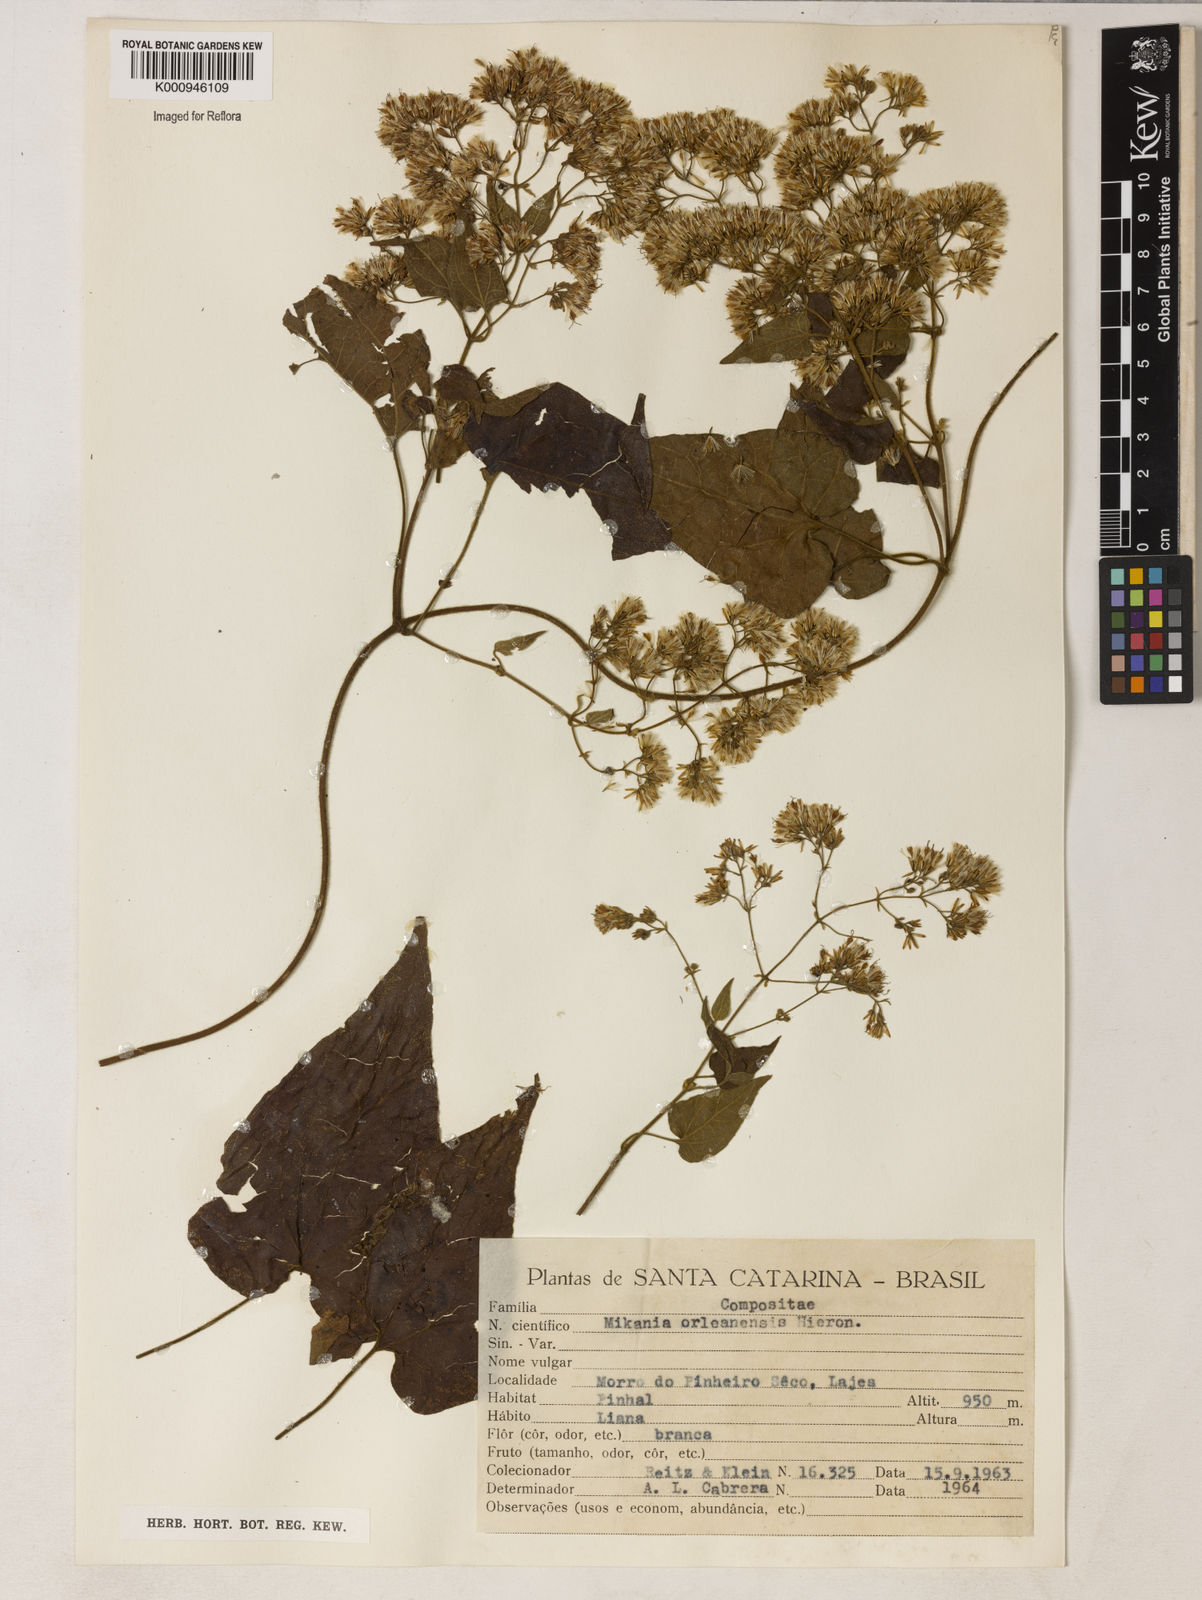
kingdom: Plantae
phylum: Tracheophyta
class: Magnoliopsida
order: Asterales
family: Asteraceae
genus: Mikania
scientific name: Mikania orleansensis
